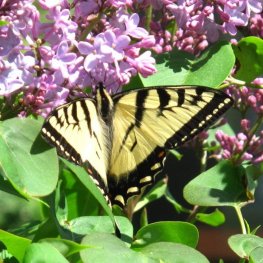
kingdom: Animalia
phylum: Arthropoda
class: Insecta
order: Lepidoptera
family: Papilionidae
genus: Pterourus
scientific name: Pterourus canadensis
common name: Canadian Tiger Swallowtail
